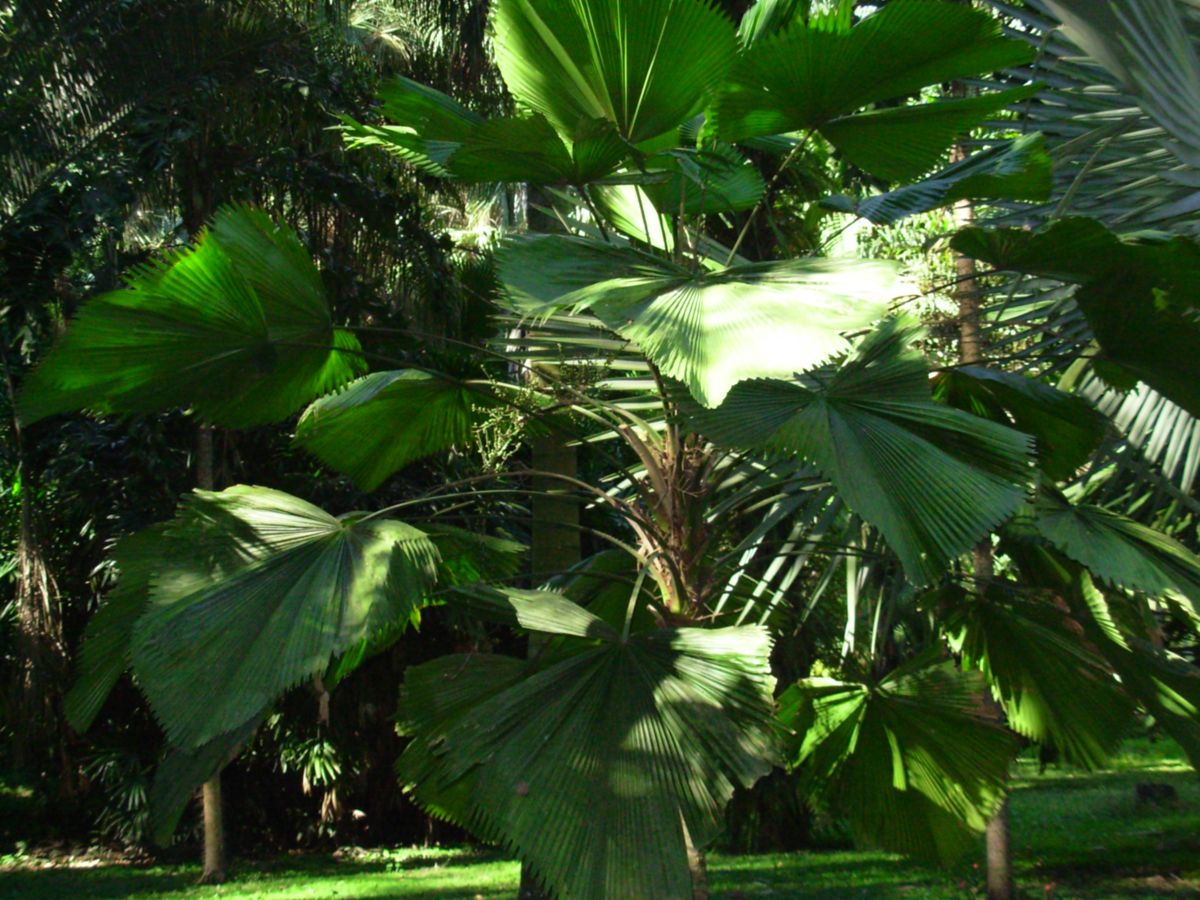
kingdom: Plantae
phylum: Tracheophyta
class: Liliopsida
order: Arecales
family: Arecaceae
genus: Licuala
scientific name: Licuala grandis
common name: Ruffled fan palm
